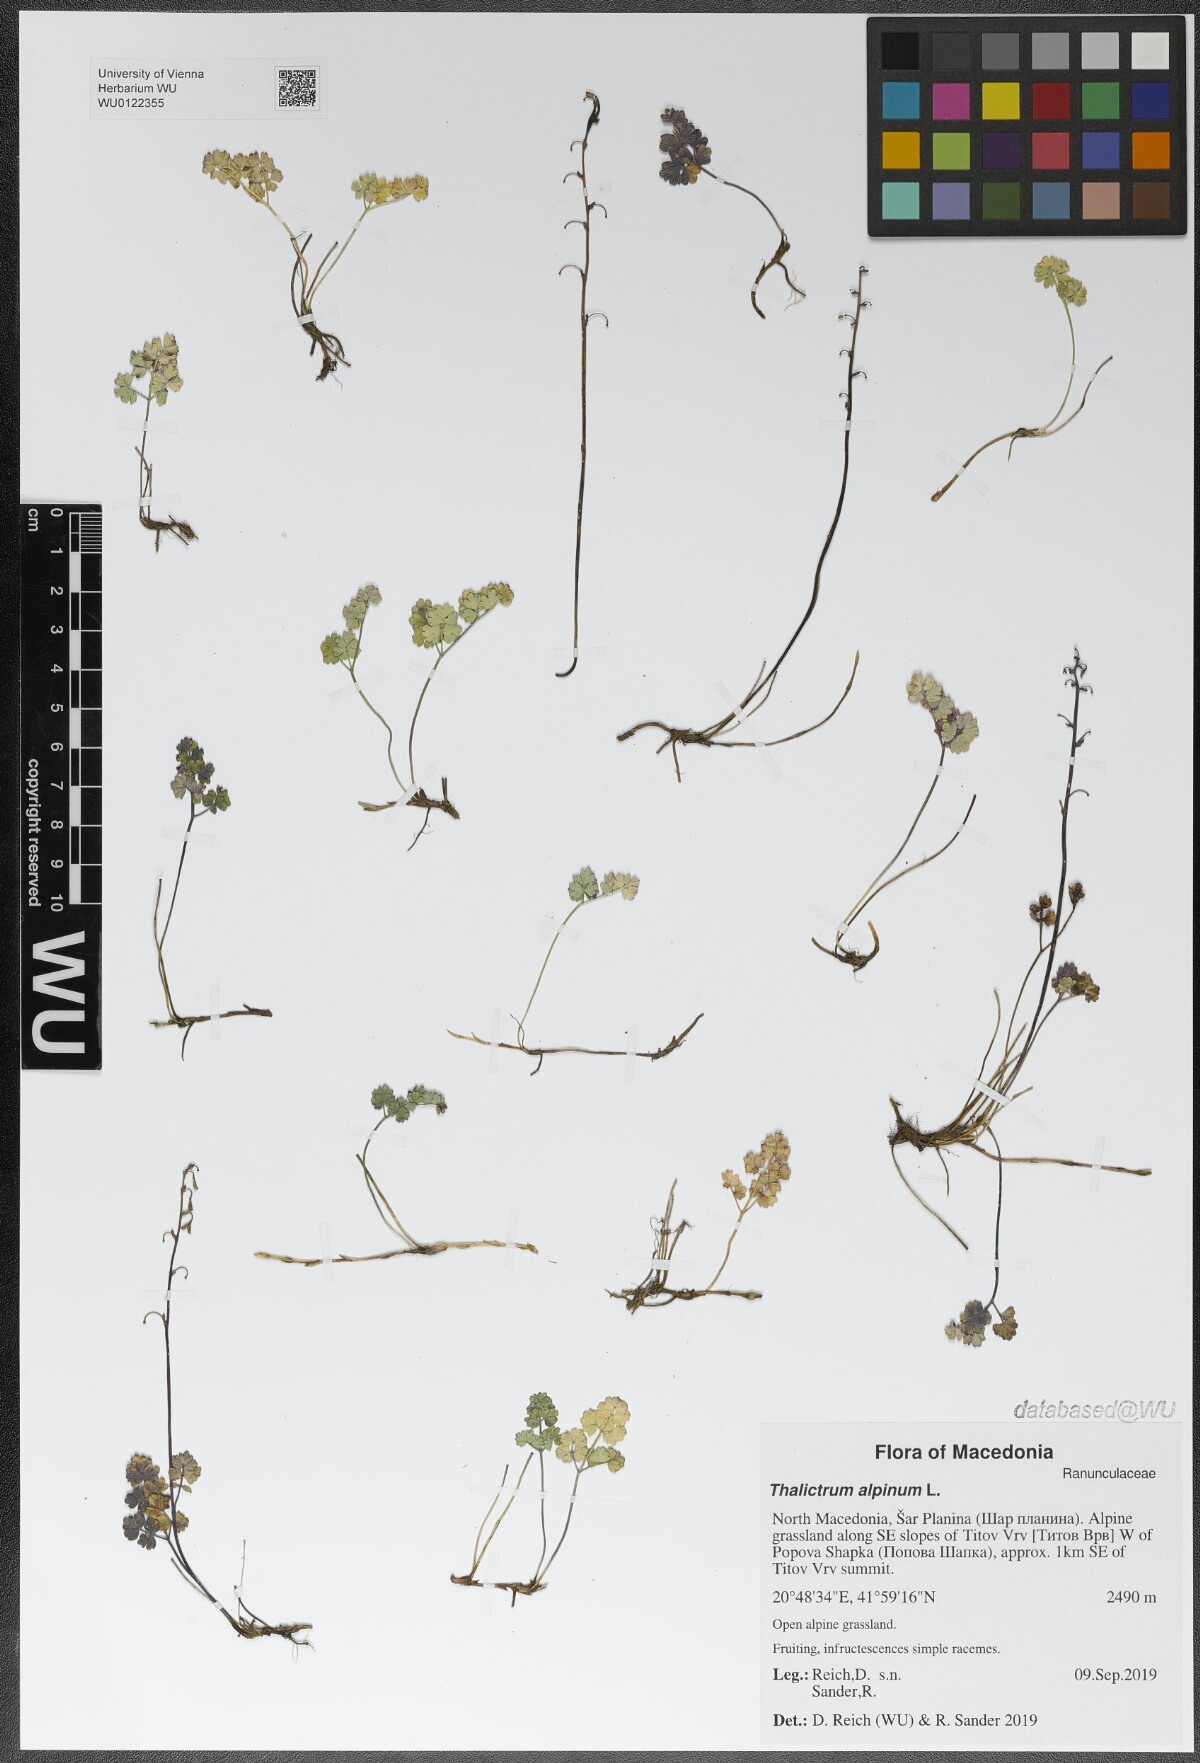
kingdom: Plantae
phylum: Tracheophyta
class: Magnoliopsida
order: Ranunculales
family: Ranunculaceae
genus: Thalictrum
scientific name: Thalictrum alpinum
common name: Alpine meadow-rue
